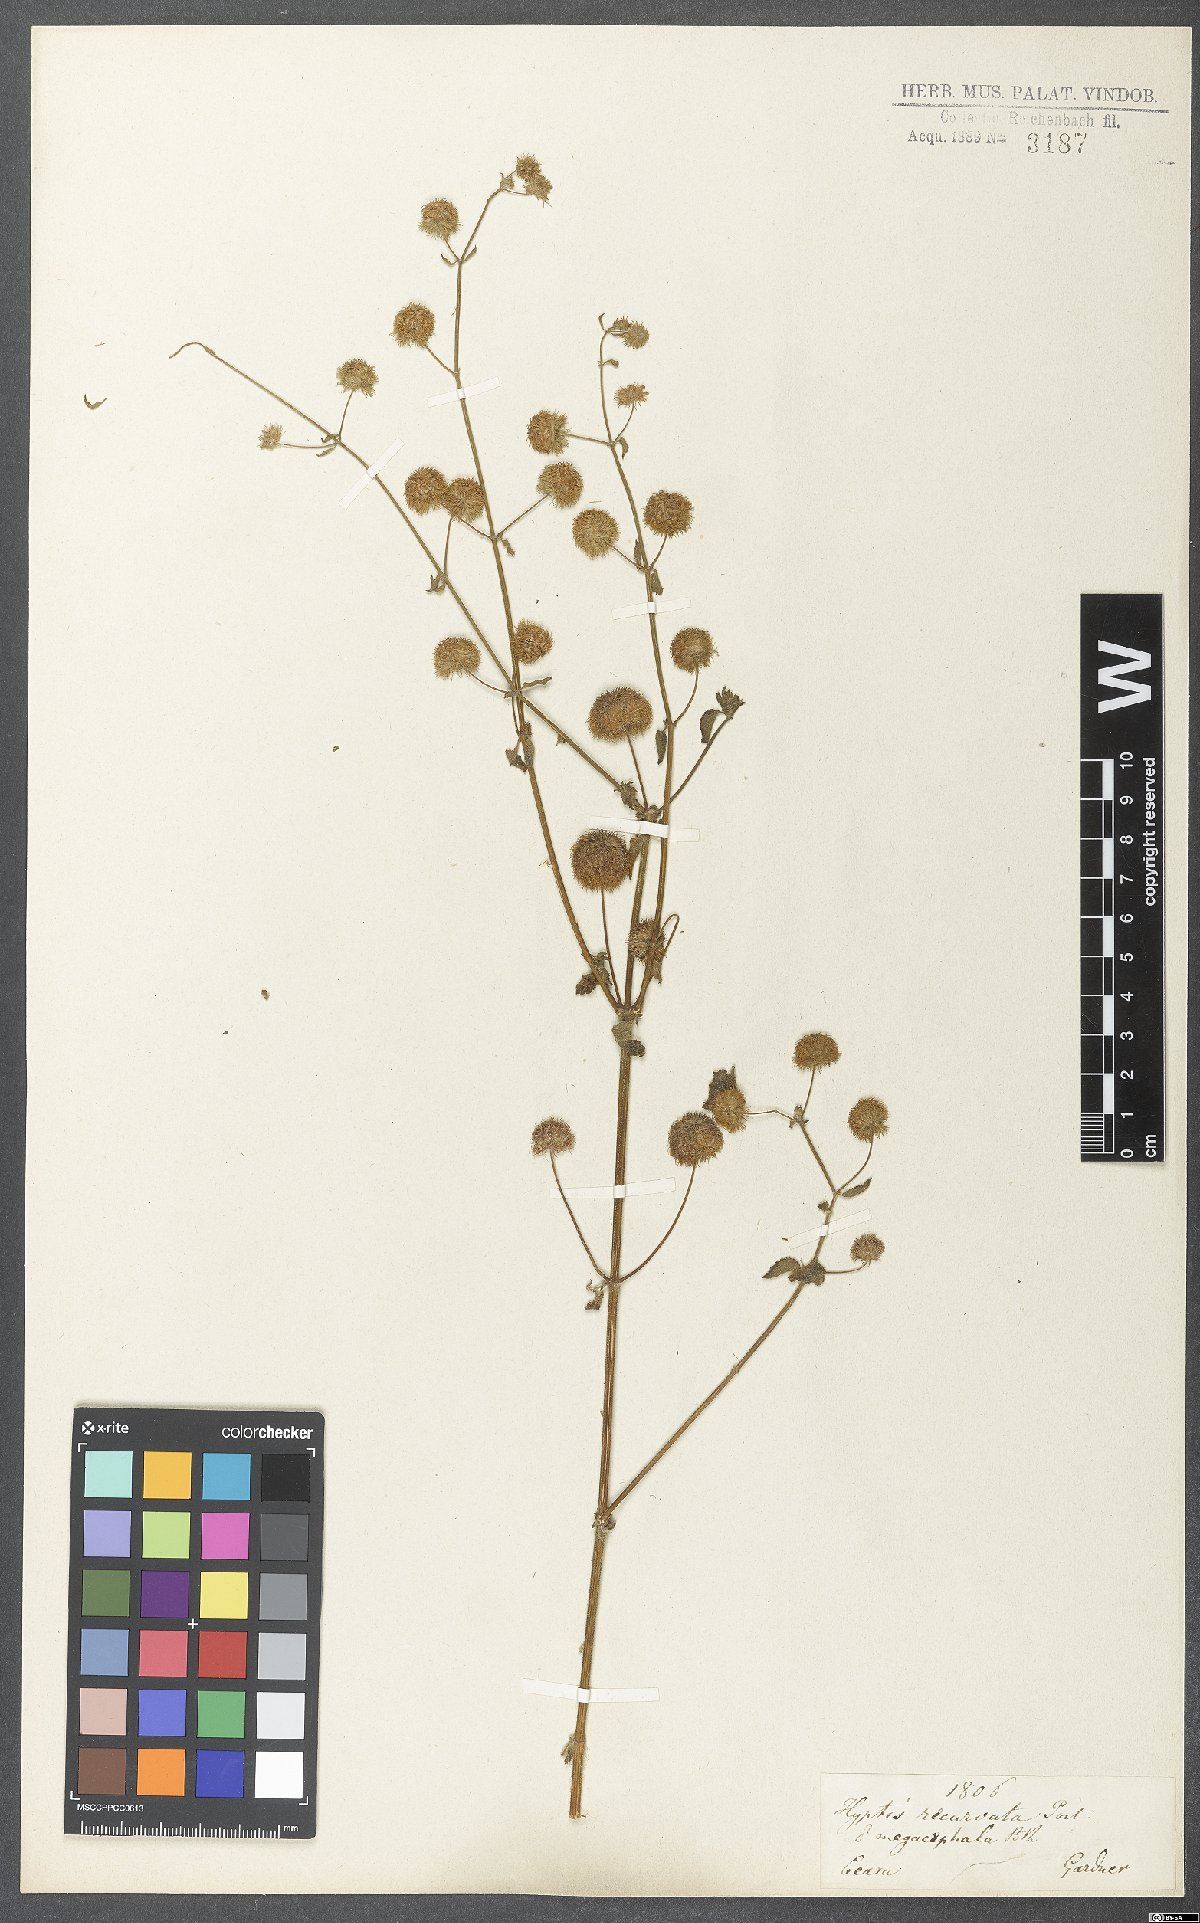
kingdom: Plantae
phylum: Tracheophyta
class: Magnoliopsida
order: Lamiales
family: Lamiaceae
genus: Hyptis
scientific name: Hyptis recurvata
